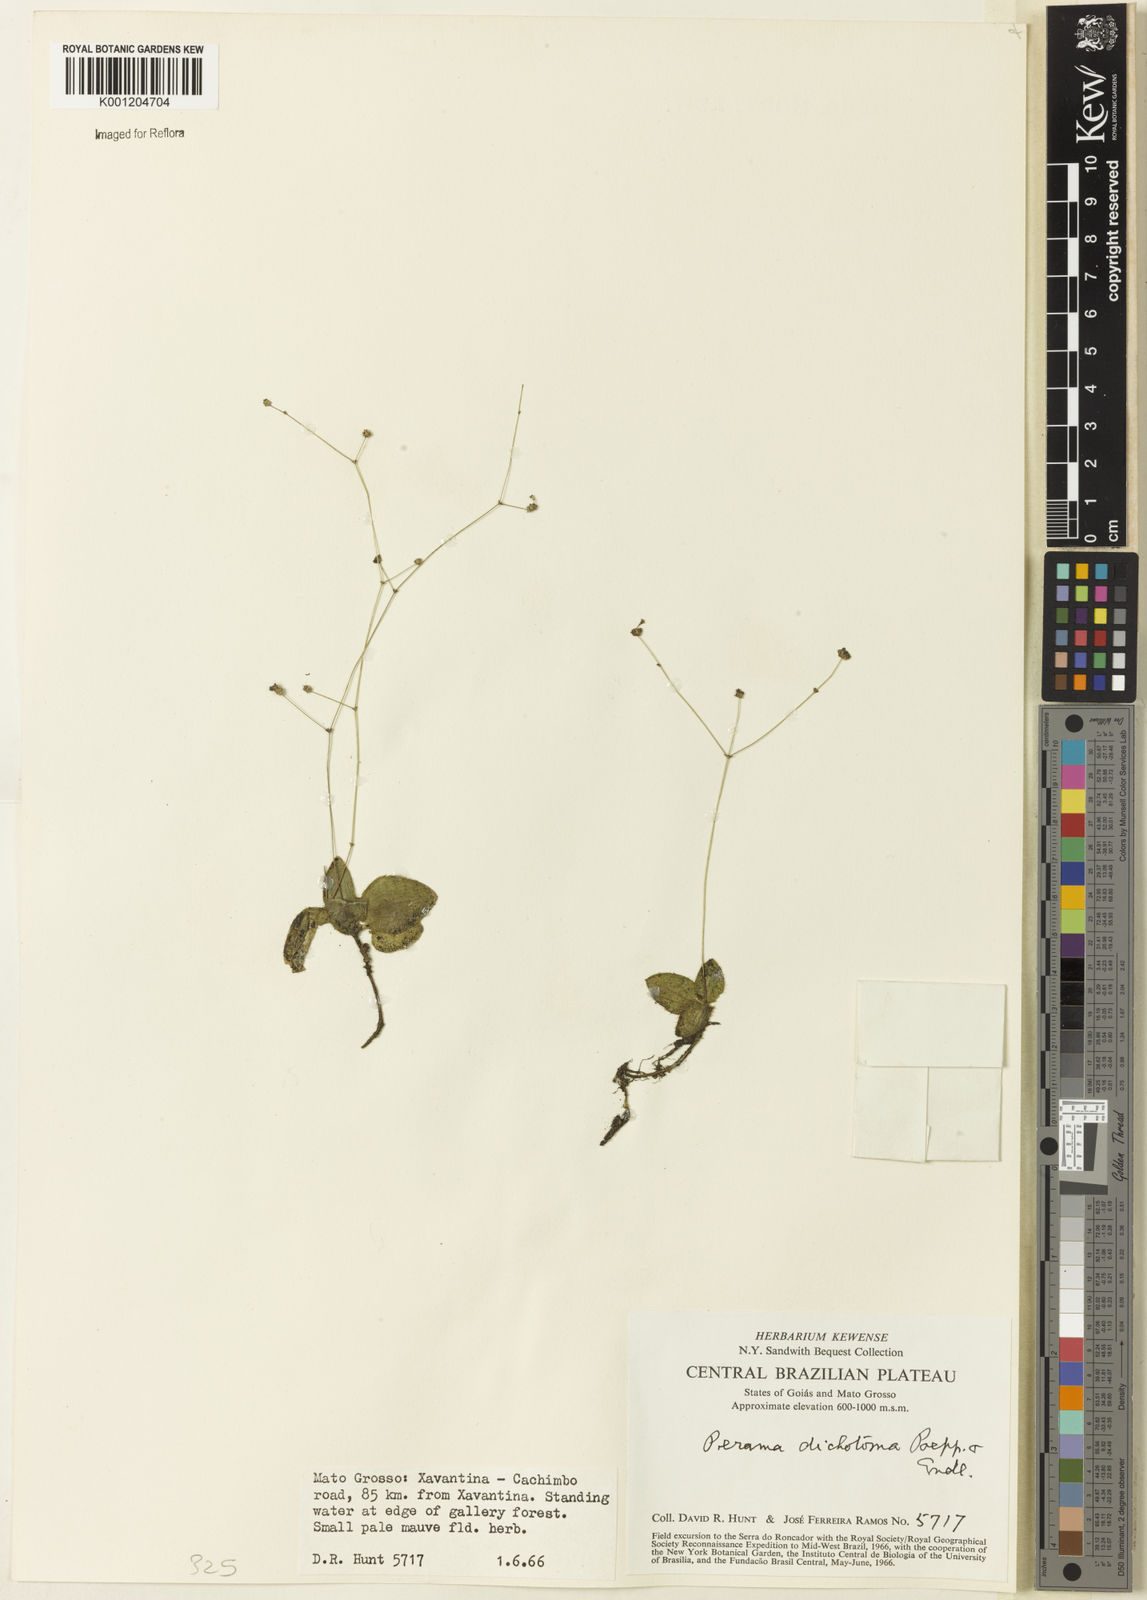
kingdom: Plantae
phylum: Tracheophyta
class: Magnoliopsida
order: Gentianales
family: Rubiaceae
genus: Perama
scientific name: Perama dichotoma
